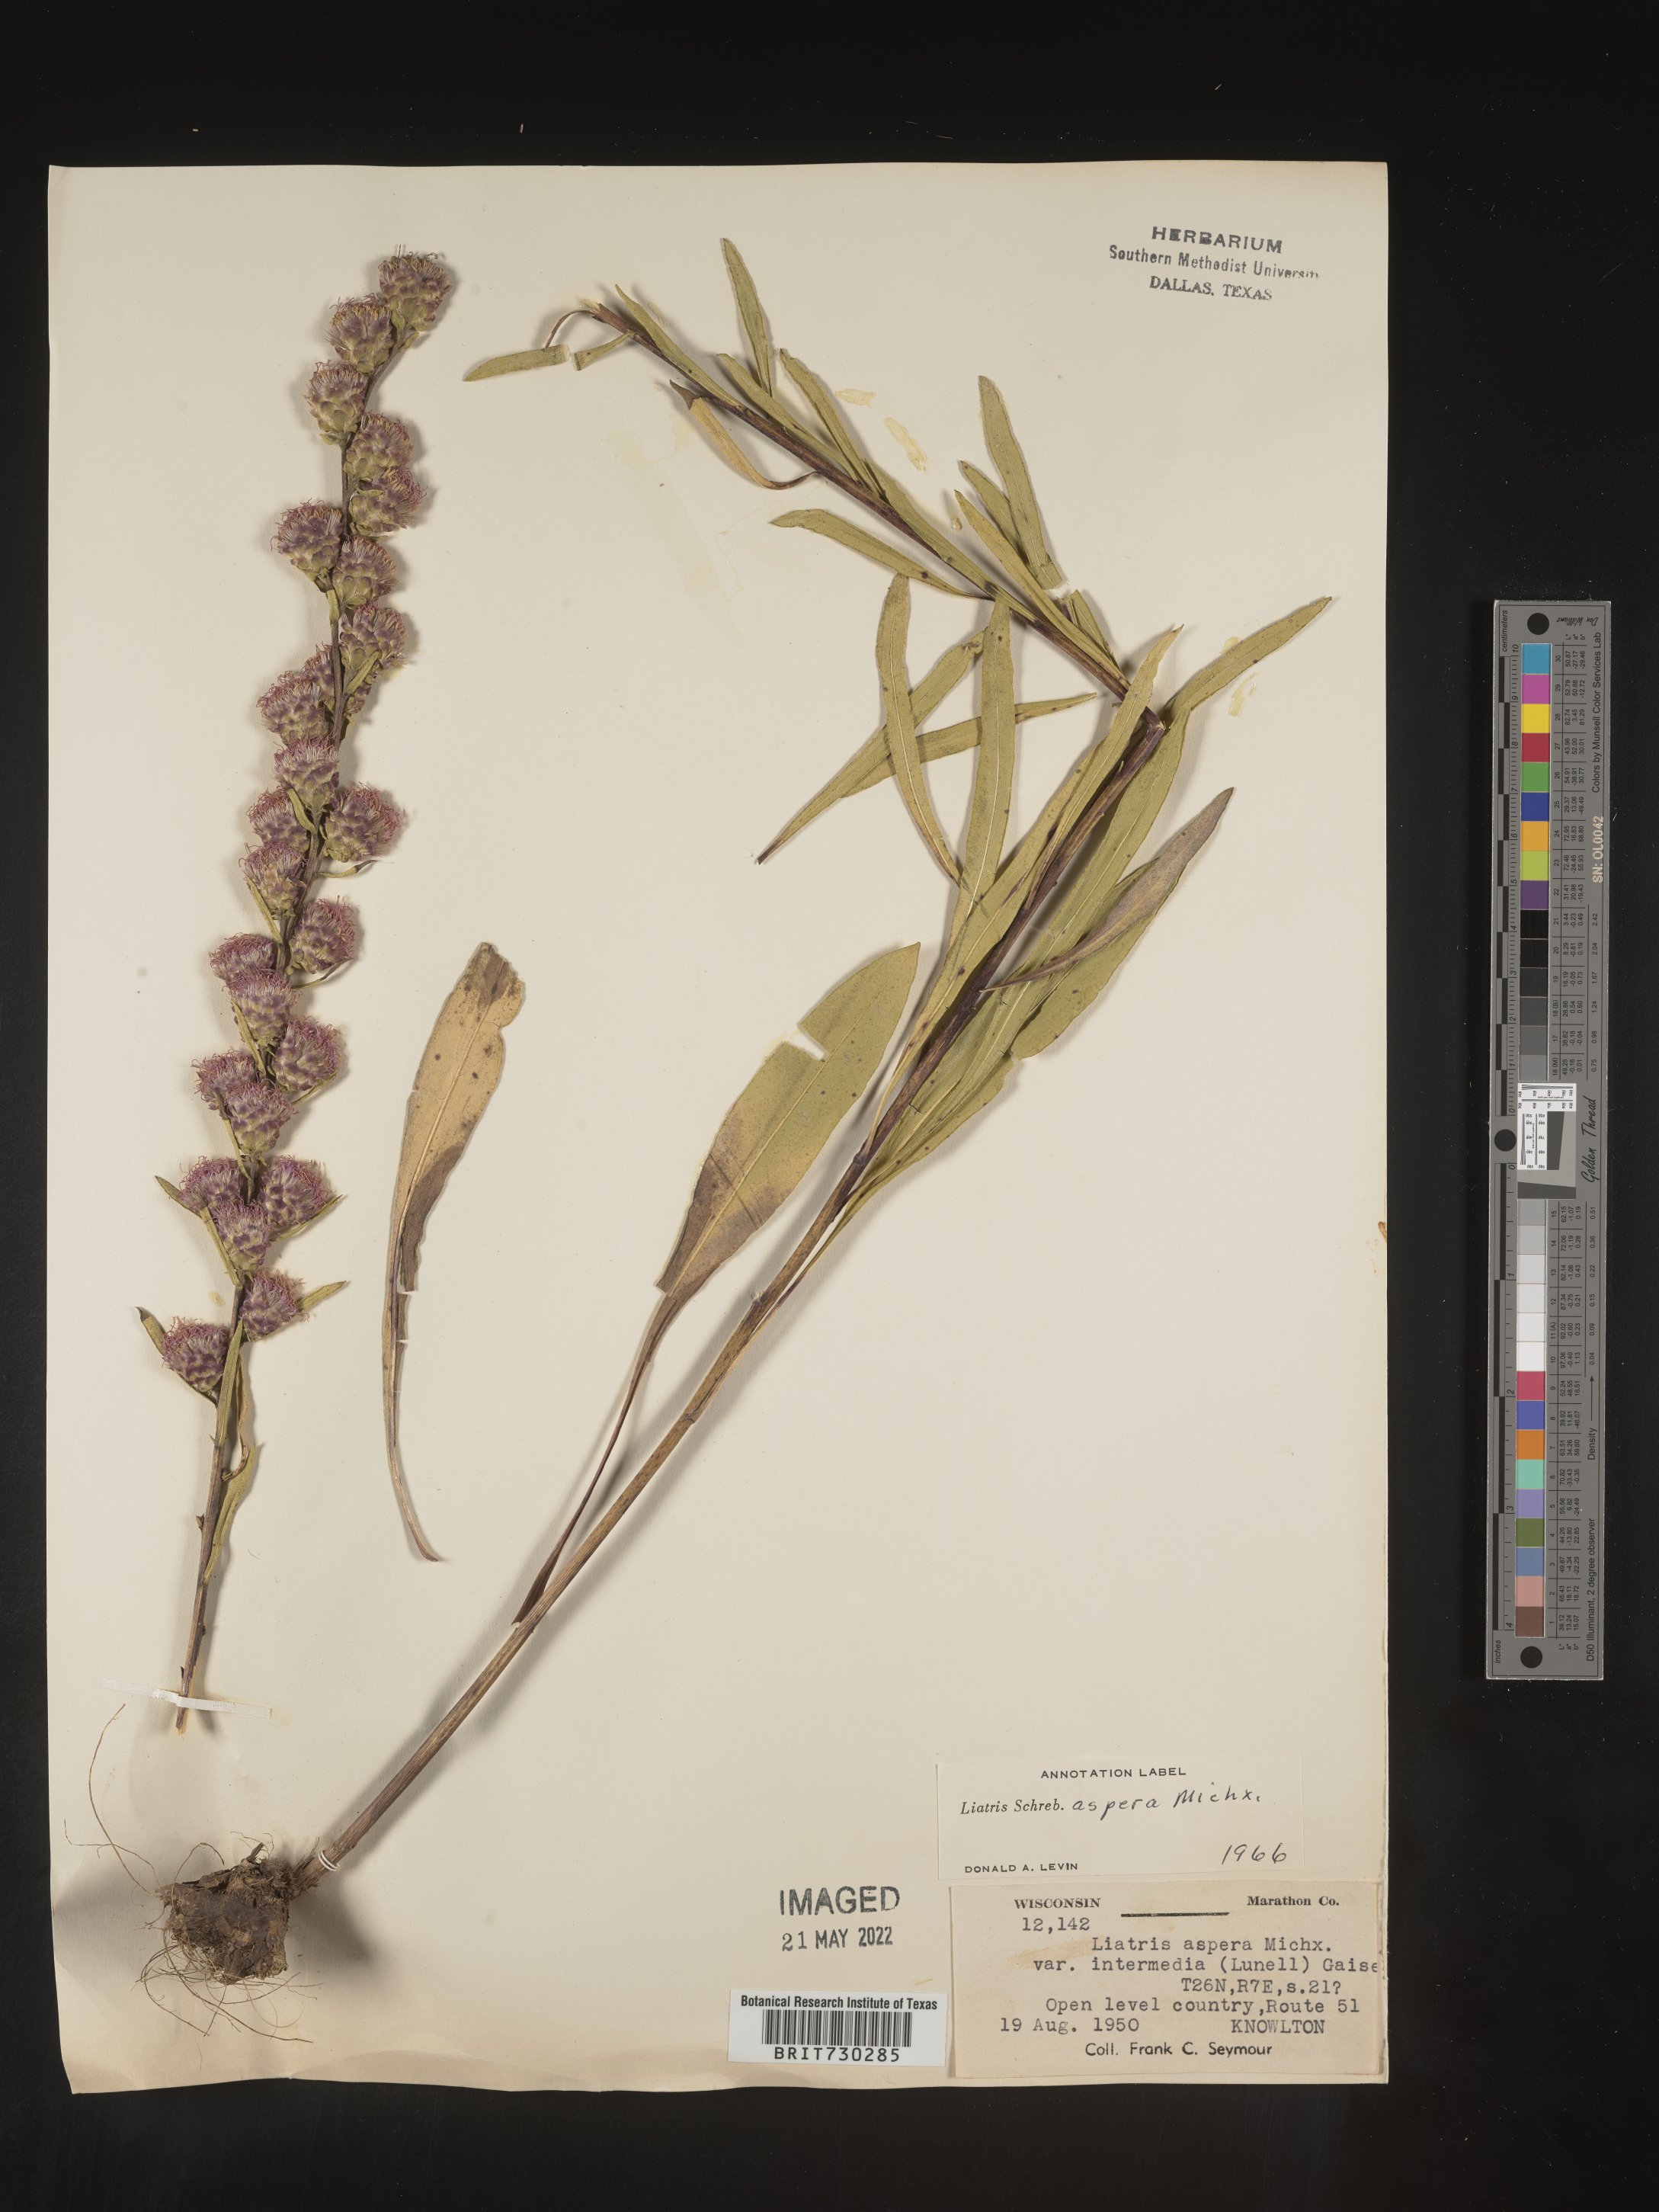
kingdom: Plantae
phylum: Tracheophyta
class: Magnoliopsida
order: Asterales
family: Asteraceae
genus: Liatris
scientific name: Liatris aspera
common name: Lacerate blazing-star
